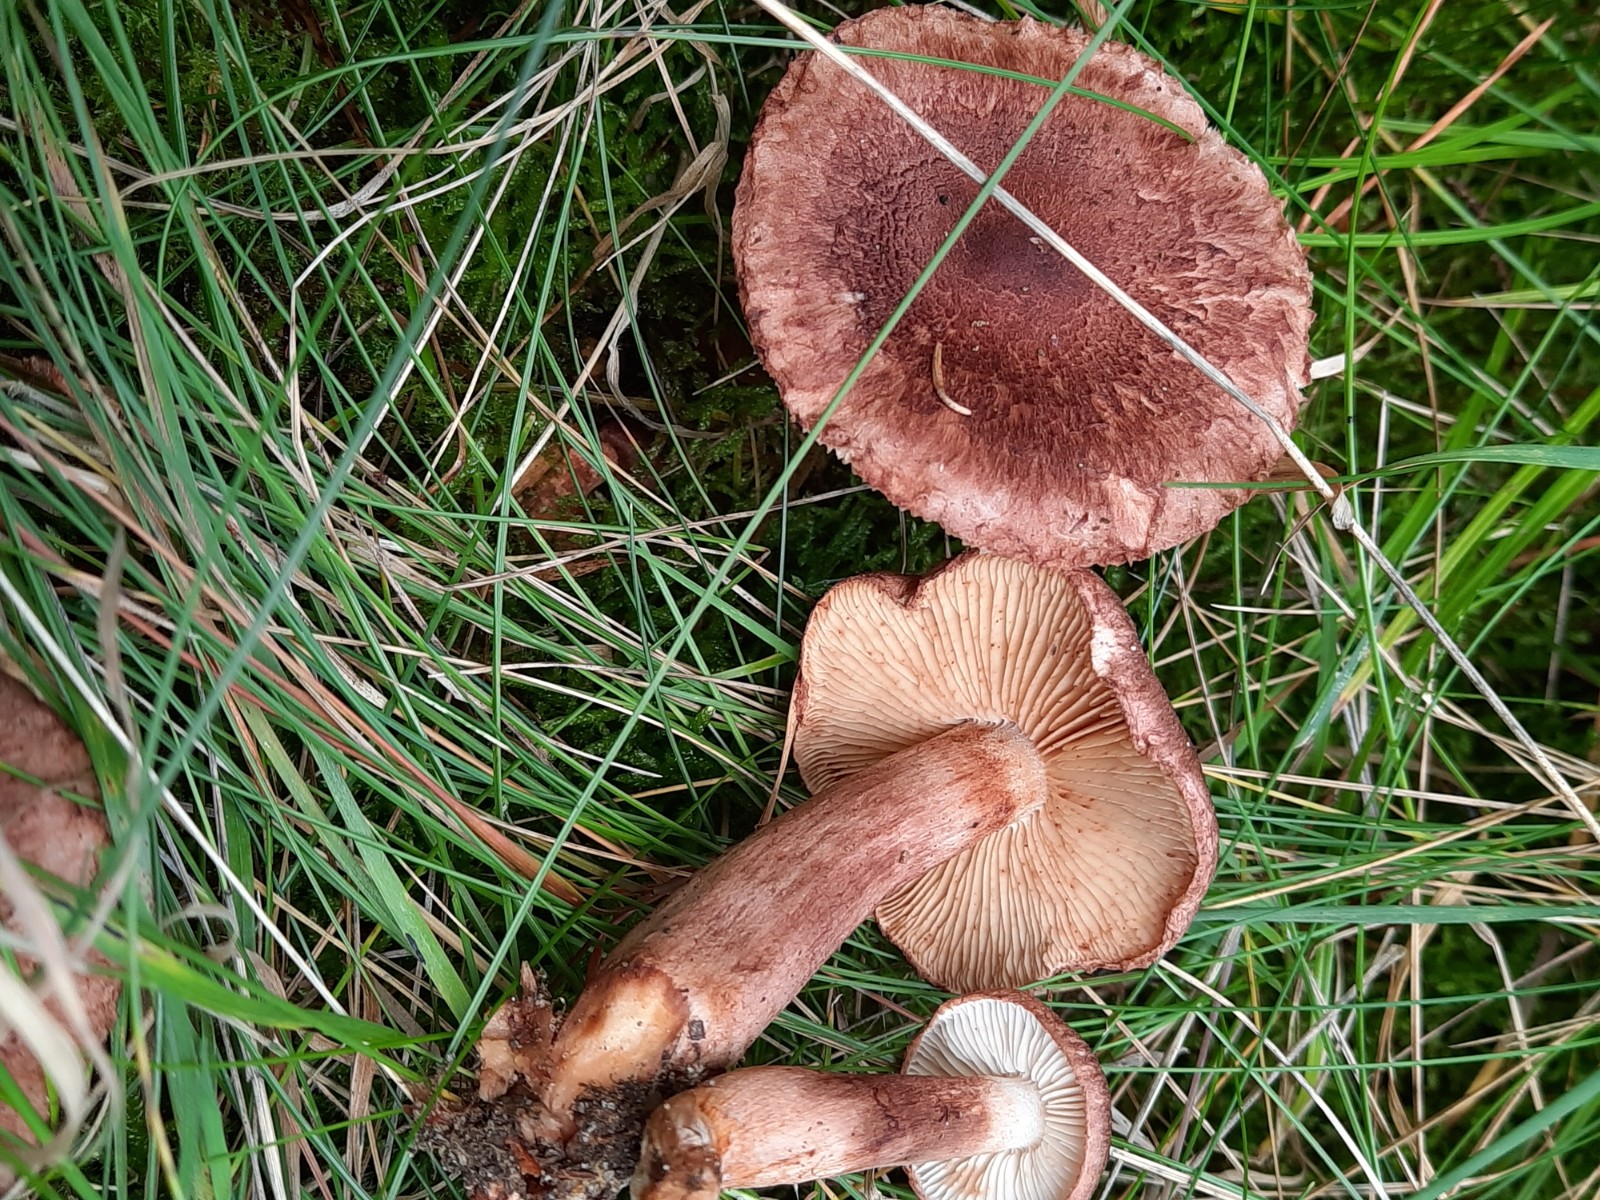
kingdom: Fungi
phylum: Basidiomycota
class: Agaricomycetes
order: Agaricales
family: Tricholomataceae
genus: Tricholoma
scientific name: Tricholoma vaccinum
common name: ko-ridderhat
